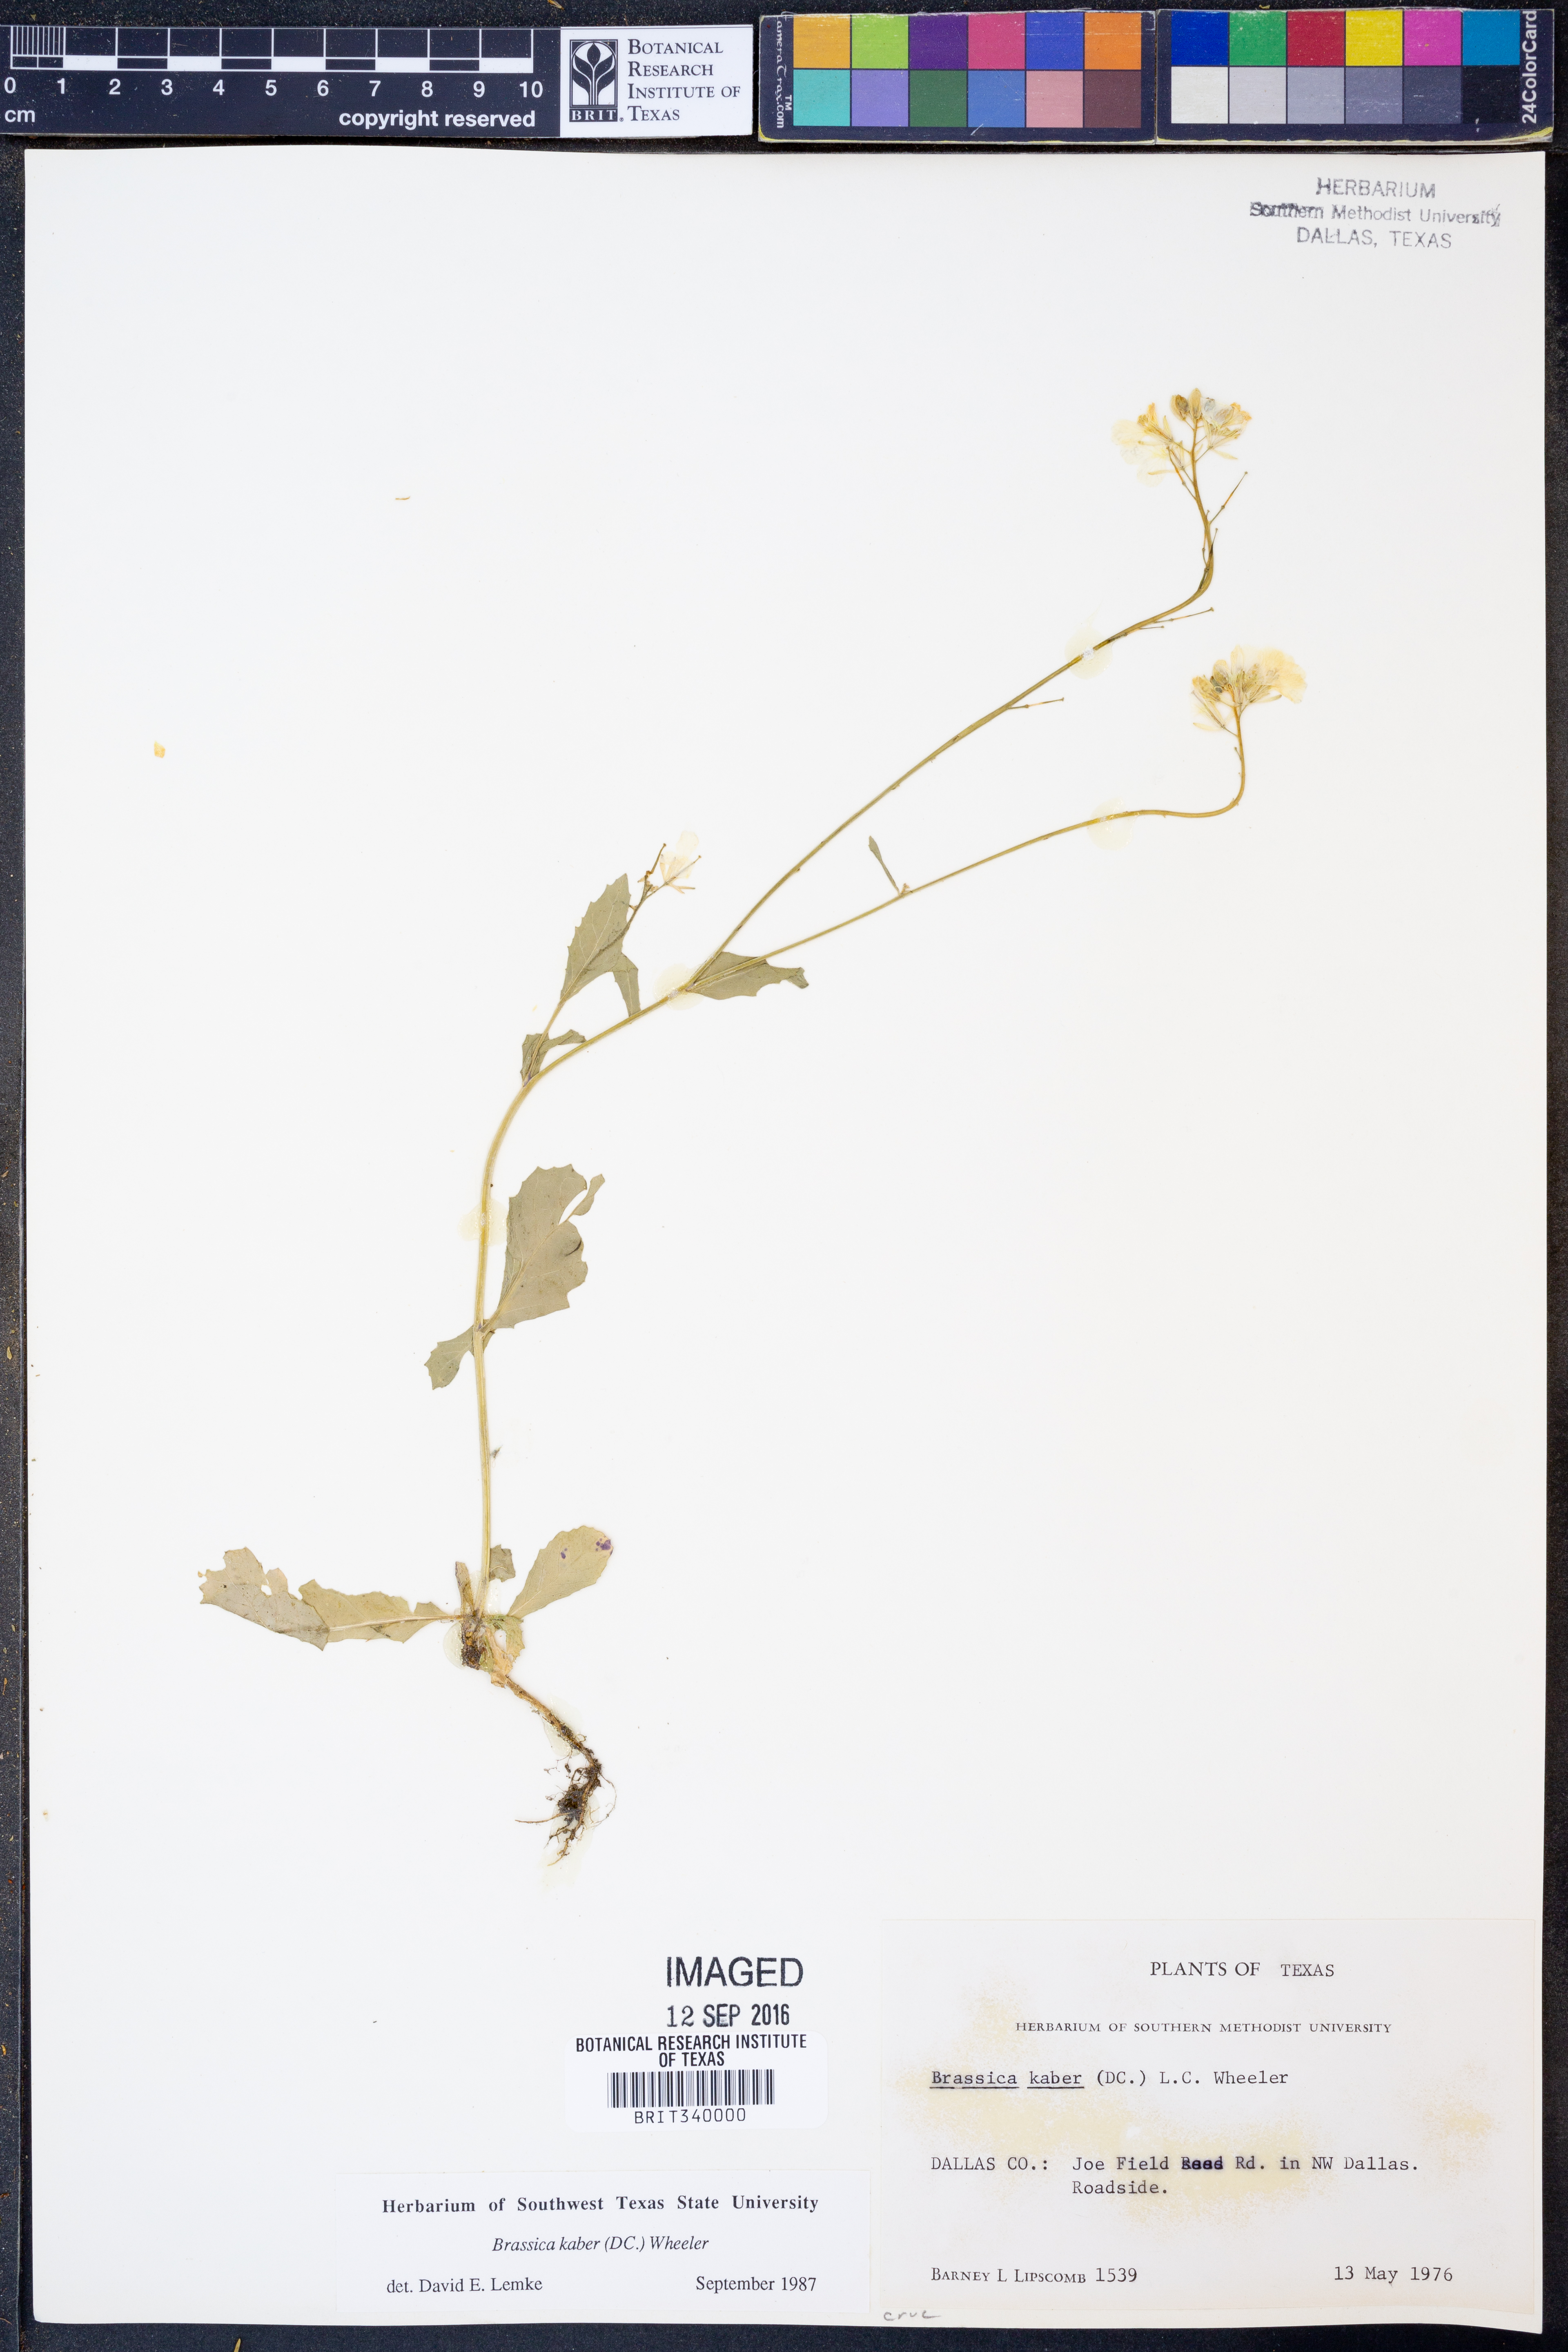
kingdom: Plantae
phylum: Tracheophyta
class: Magnoliopsida
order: Brassicales
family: Brassicaceae
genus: Sinapis
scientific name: Sinapis arvensis
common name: Charlock
